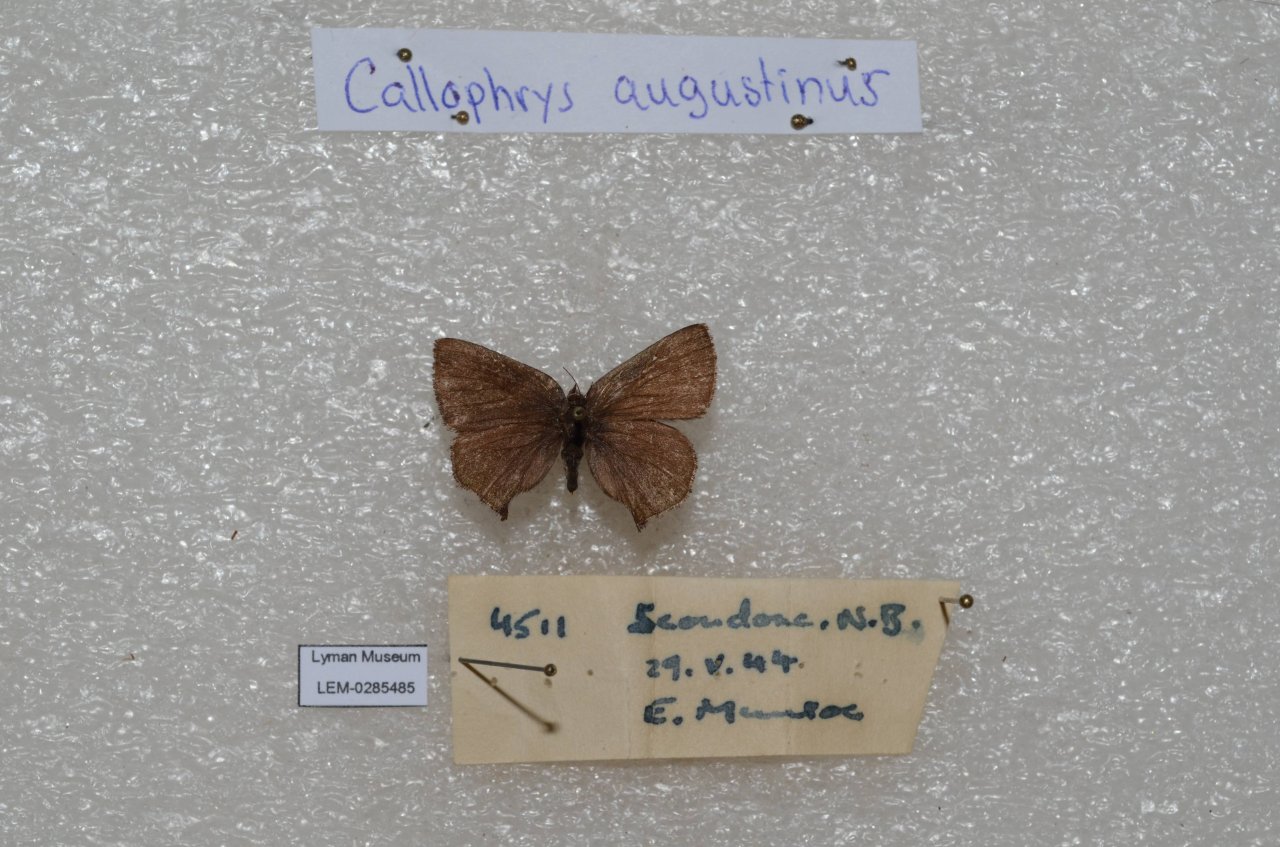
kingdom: Animalia
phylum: Arthropoda
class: Insecta
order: Lepidoptera
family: Lycaenidae
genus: Incisalia
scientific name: Incisalia irioides
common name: Brown Elfin
